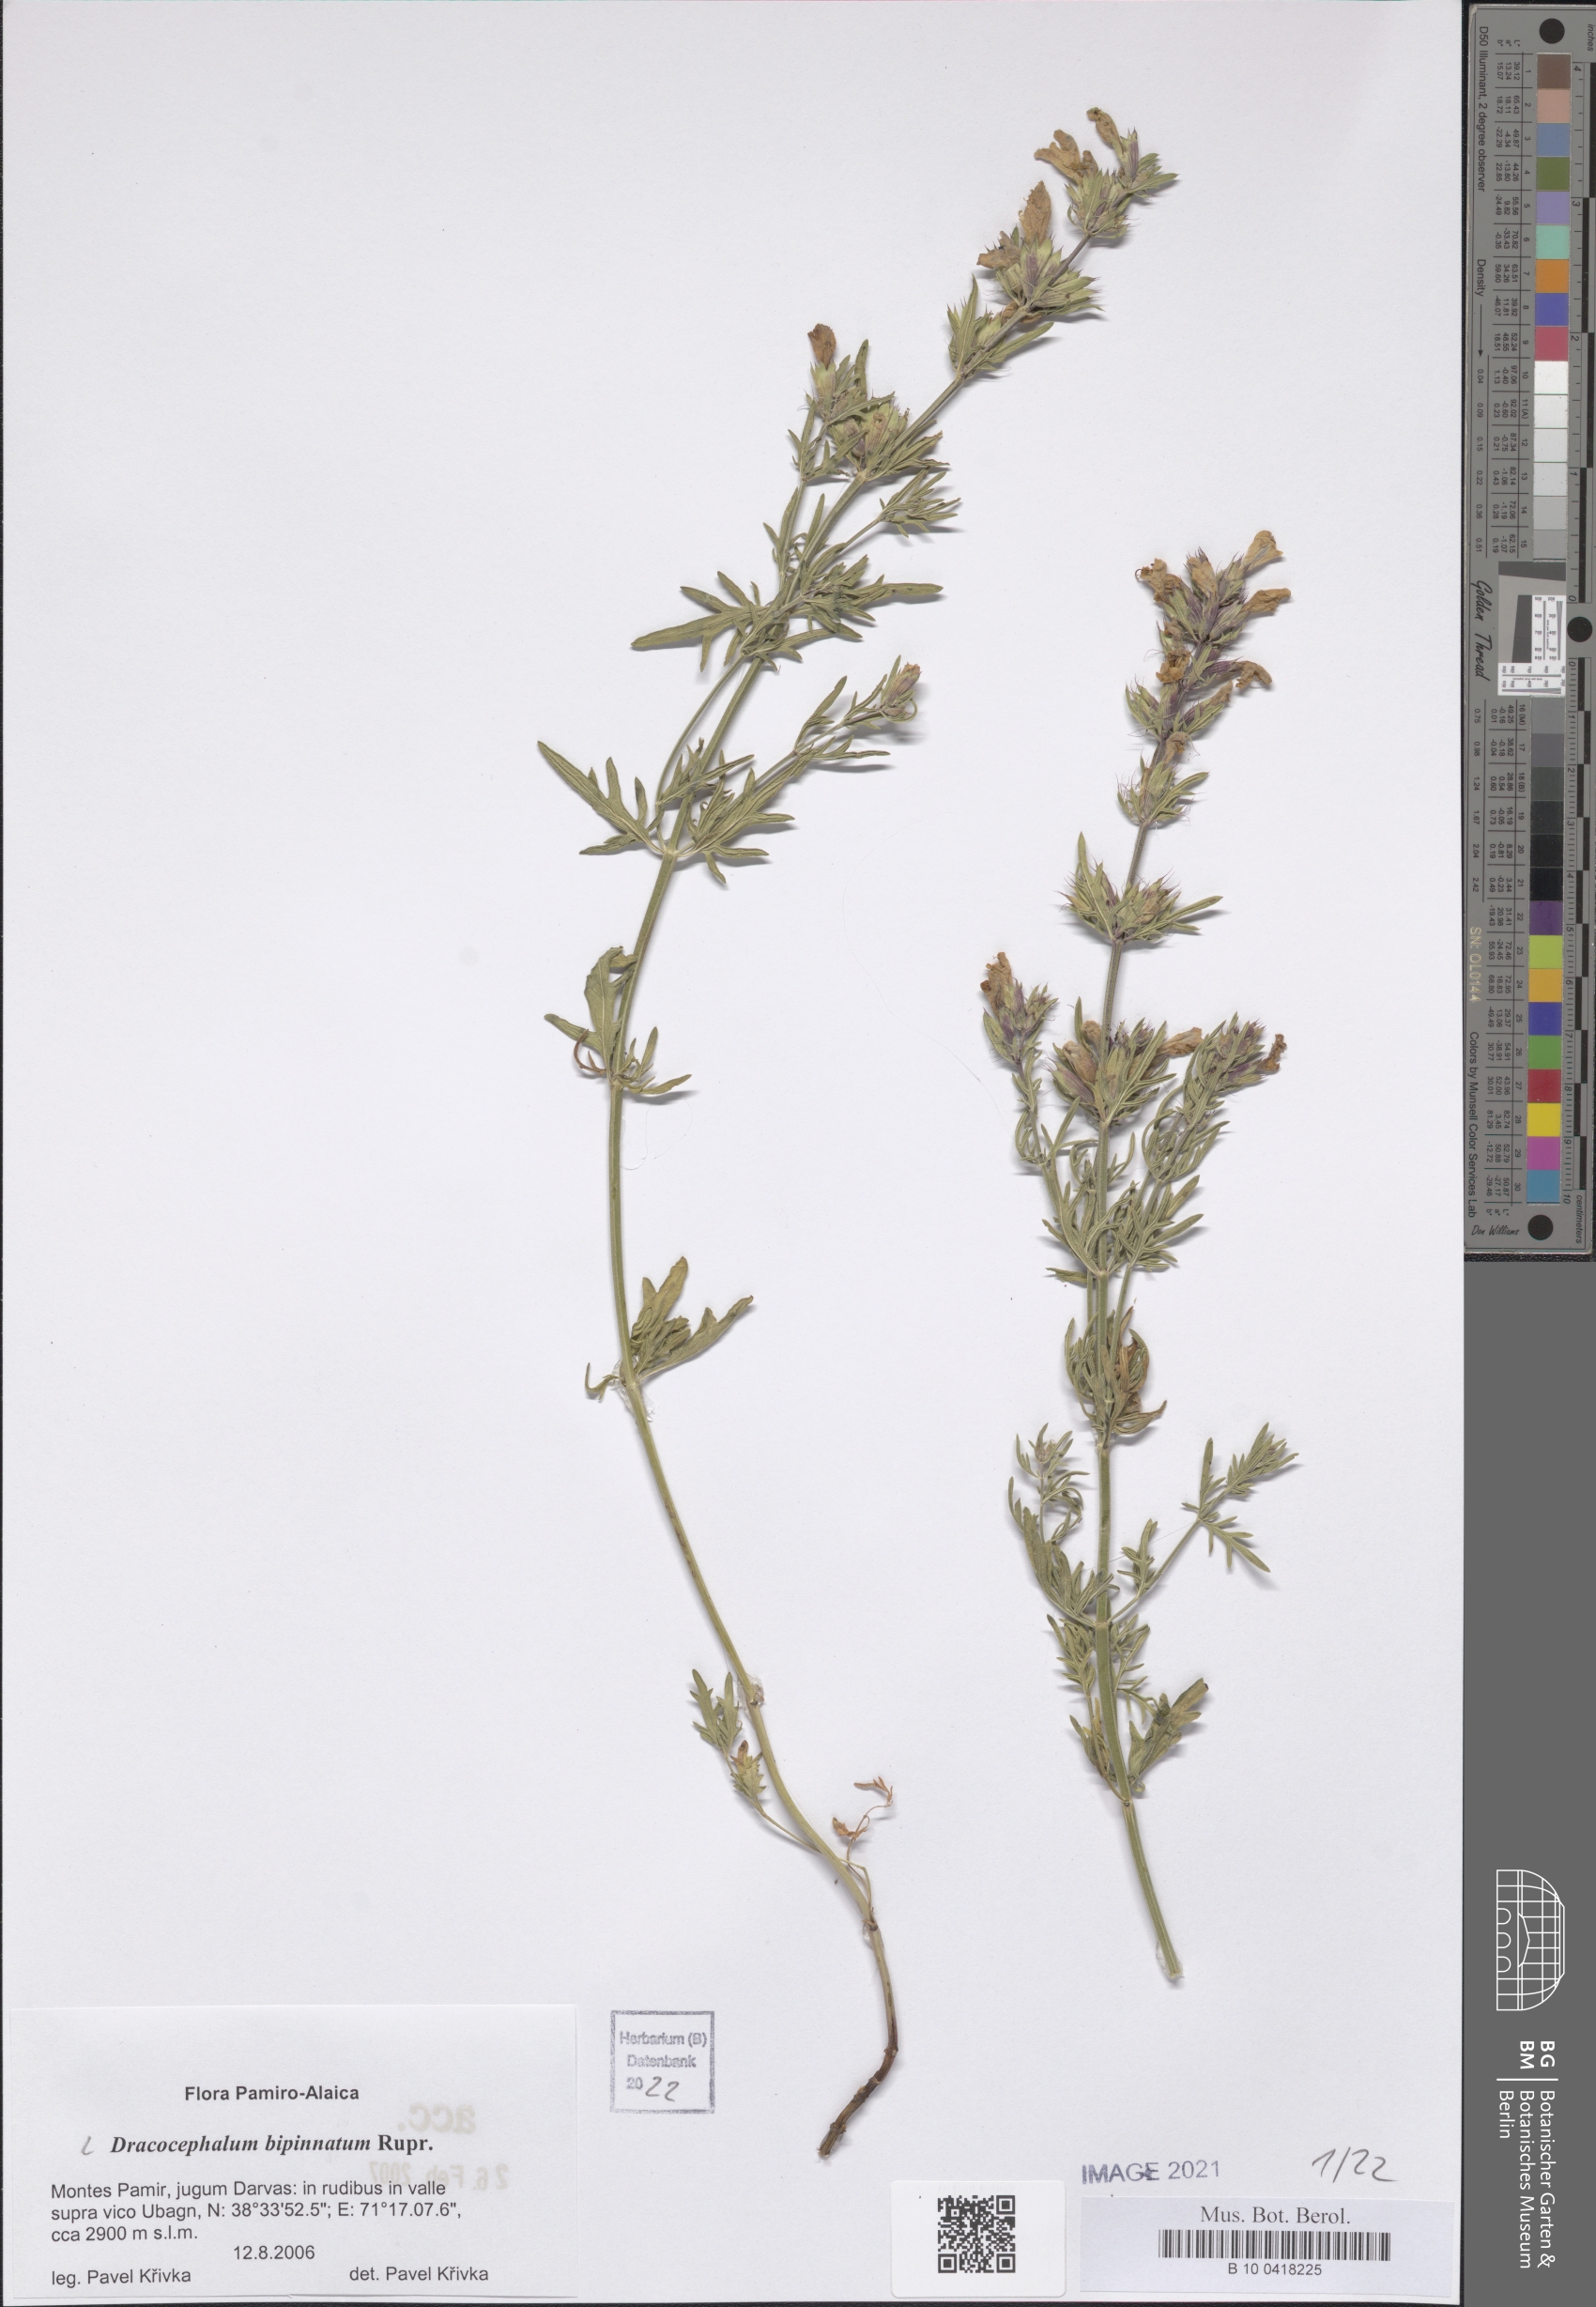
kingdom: Plantae
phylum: Tracheophyta
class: Magnoliopsida
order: Lamiales
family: Lamiaceae
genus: Dracocephalum
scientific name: Dracocephalum bipinnatum
